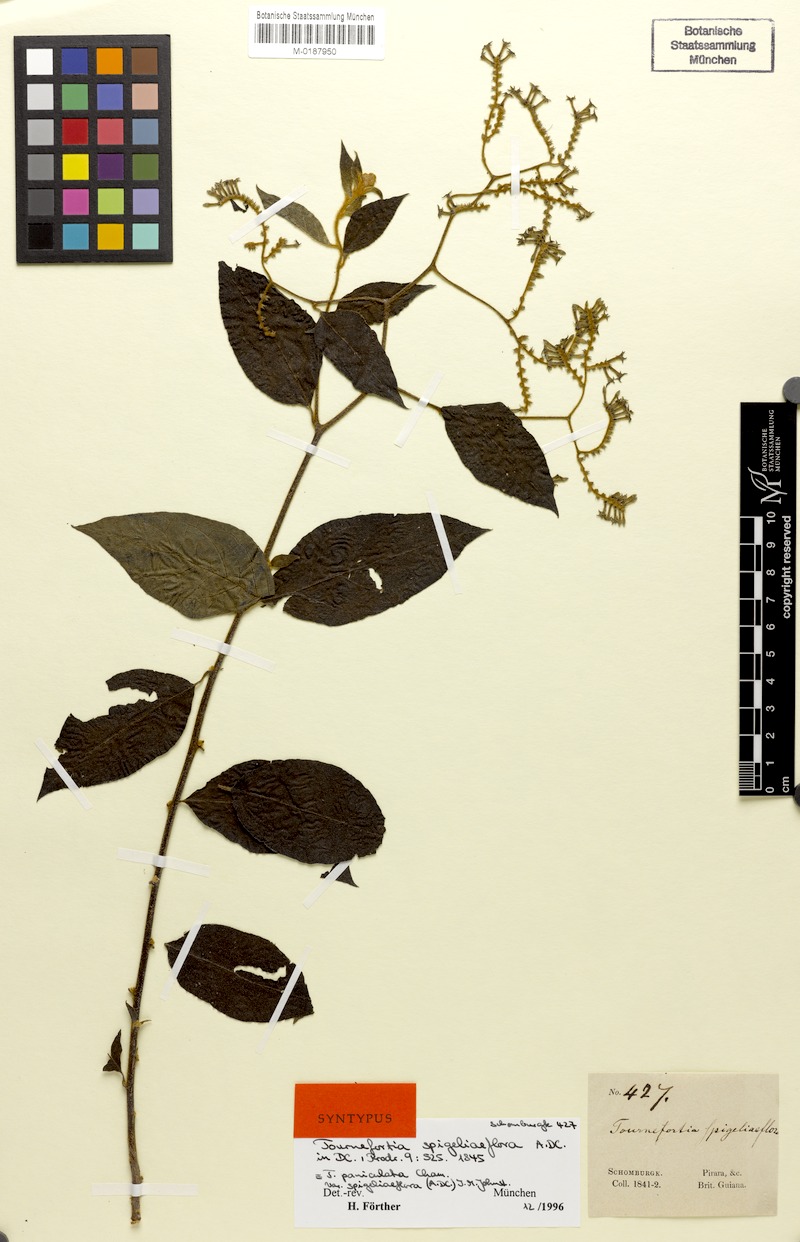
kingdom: Plantae
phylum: Tracheophyta
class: Magnoliopsida
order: Boraginales
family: Heliotropiaceae
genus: Myriopus
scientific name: Myriopus paniculatus
